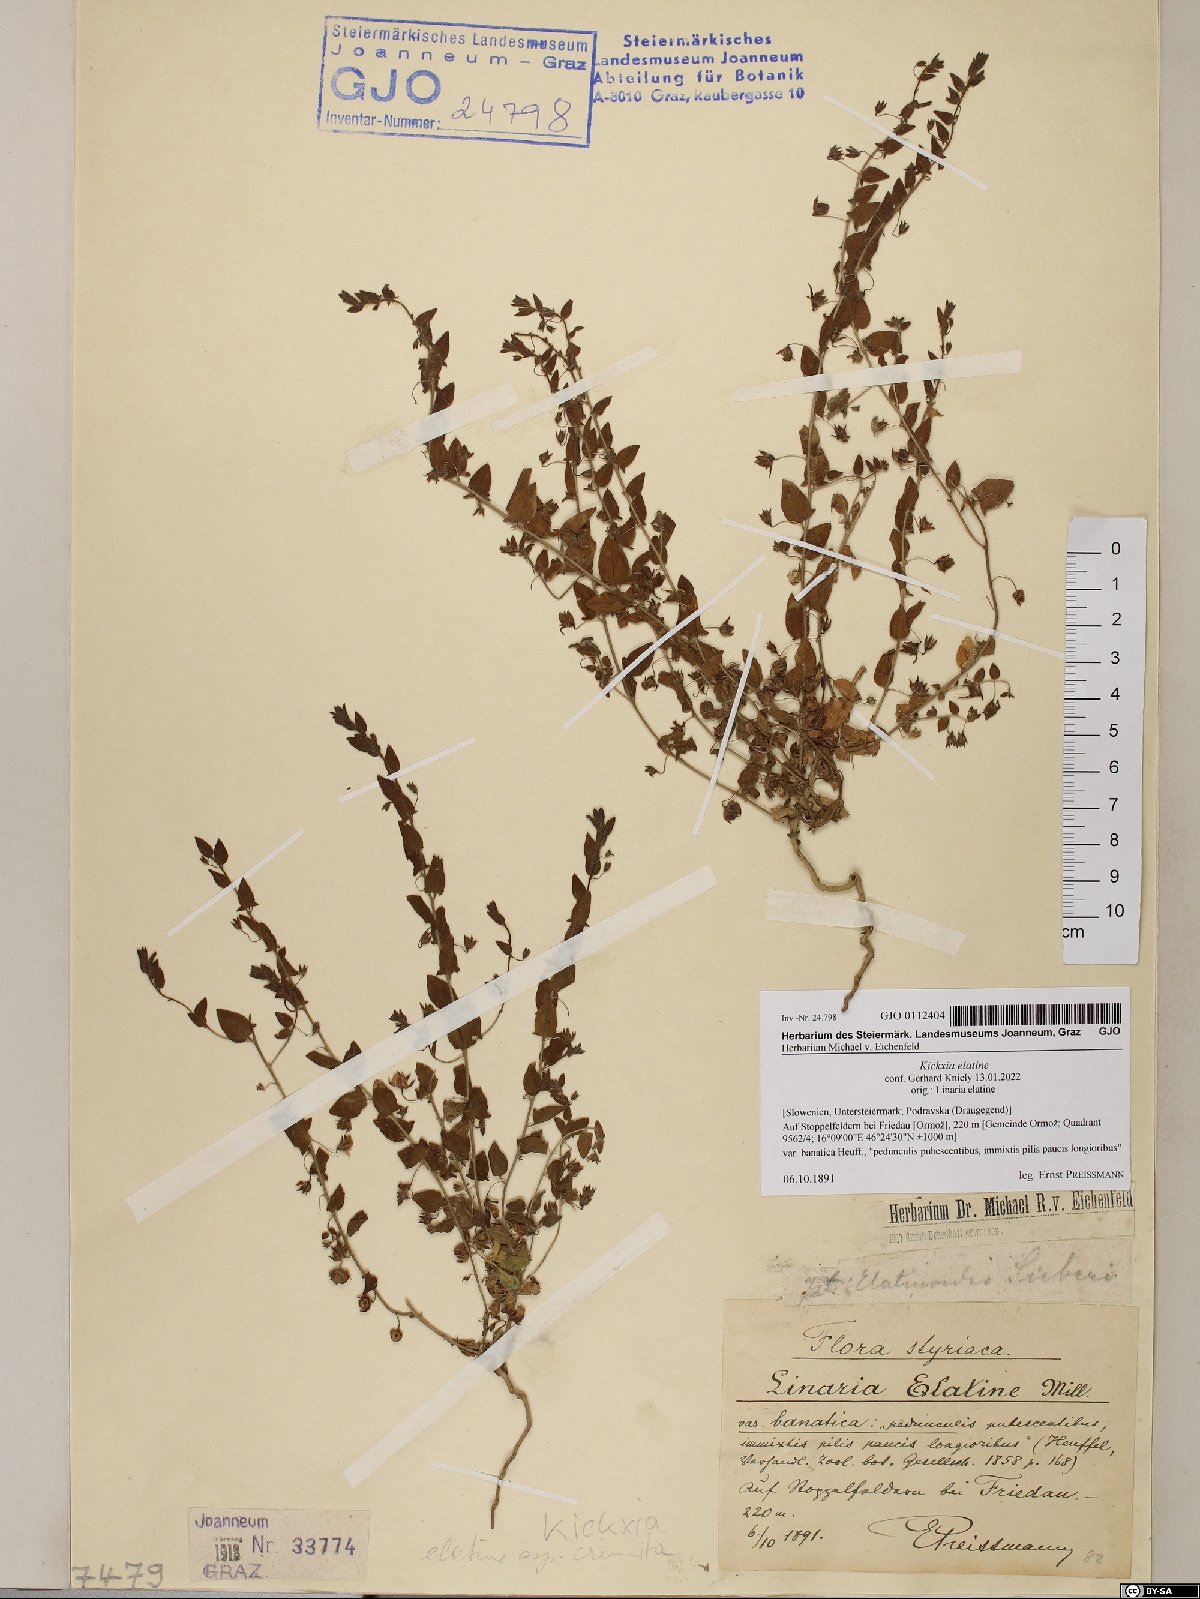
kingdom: Plantae
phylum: Tracheophyta
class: Magnoliopsida
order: Lamiales
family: Plantaginaceae
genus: Kickxia
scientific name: Kickxia elatine
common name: Sharp-leaved fluellen
